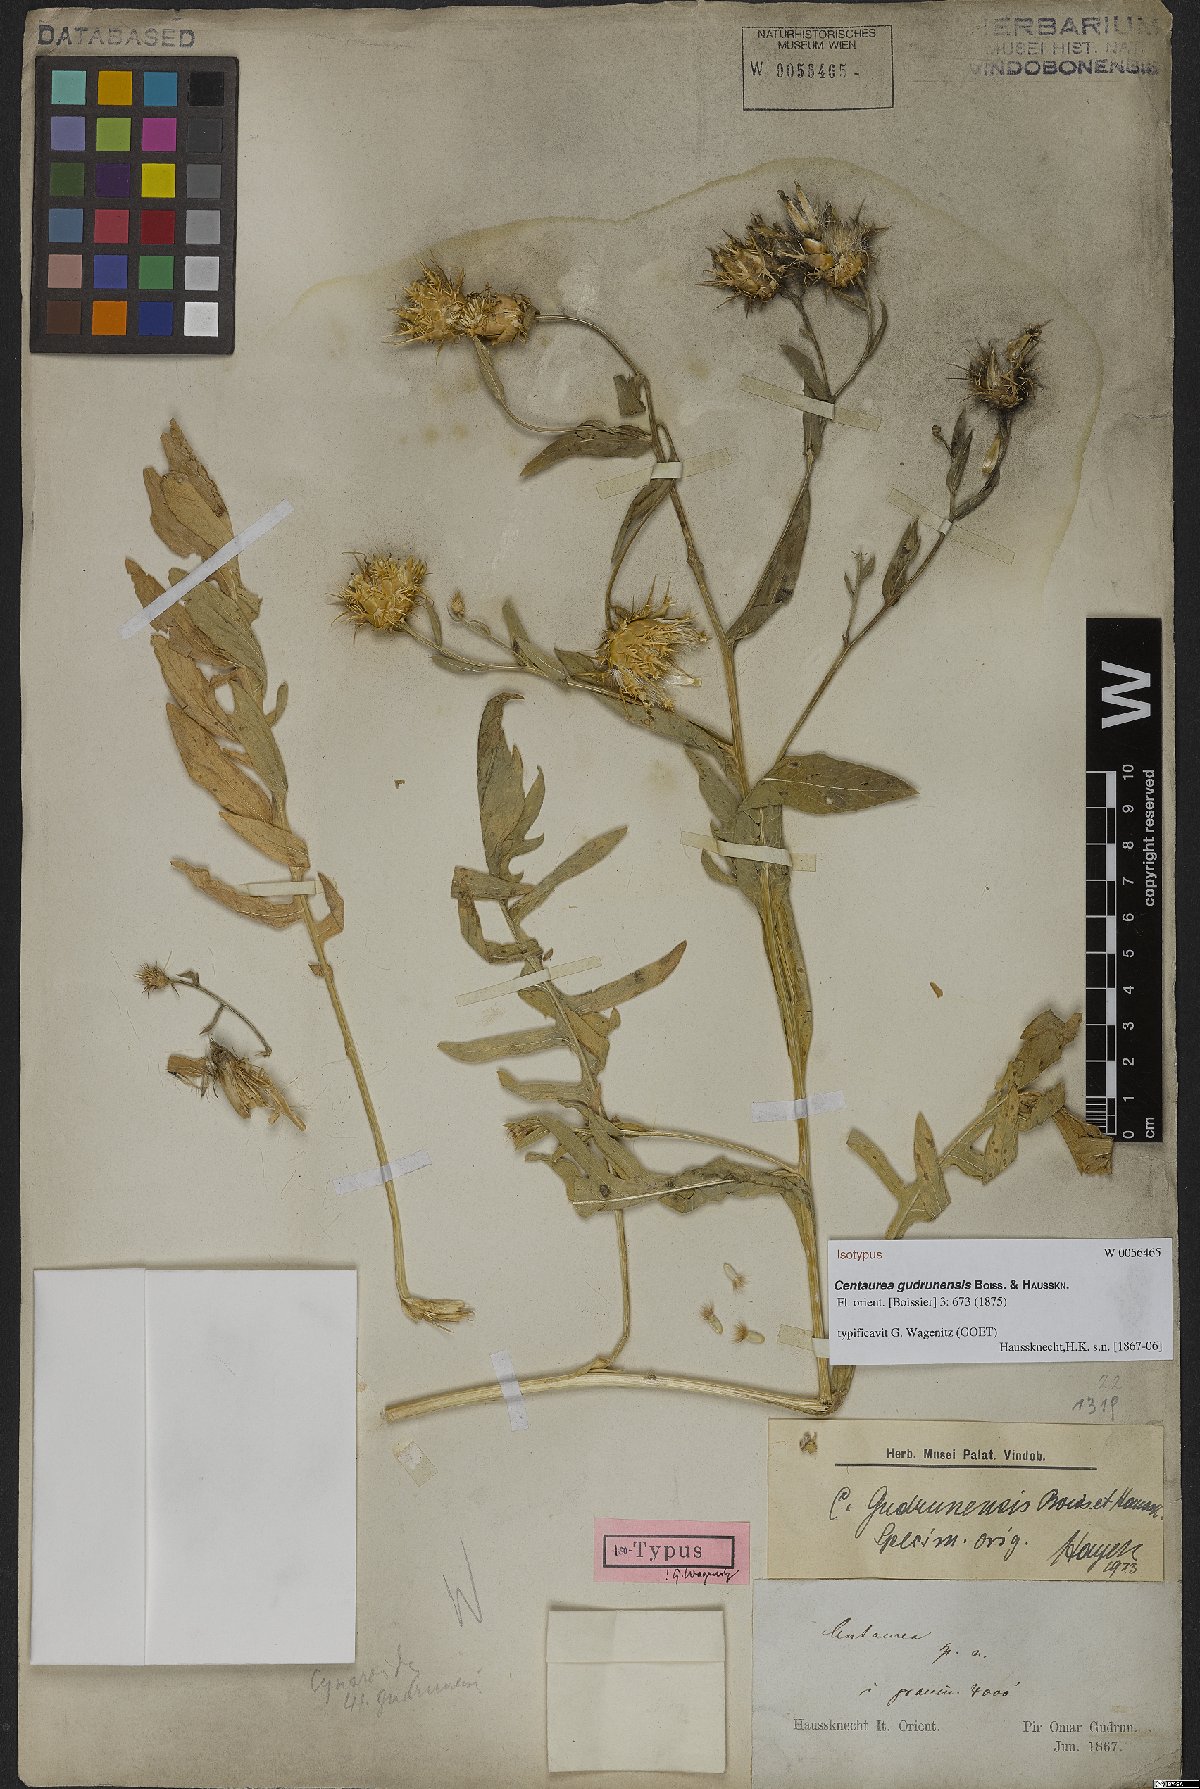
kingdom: Plantae
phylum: Tracheophyta
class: Magnoliopsida
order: Asterales
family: Asteraceae
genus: Centaurea
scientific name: Centaurea gudrunensis
